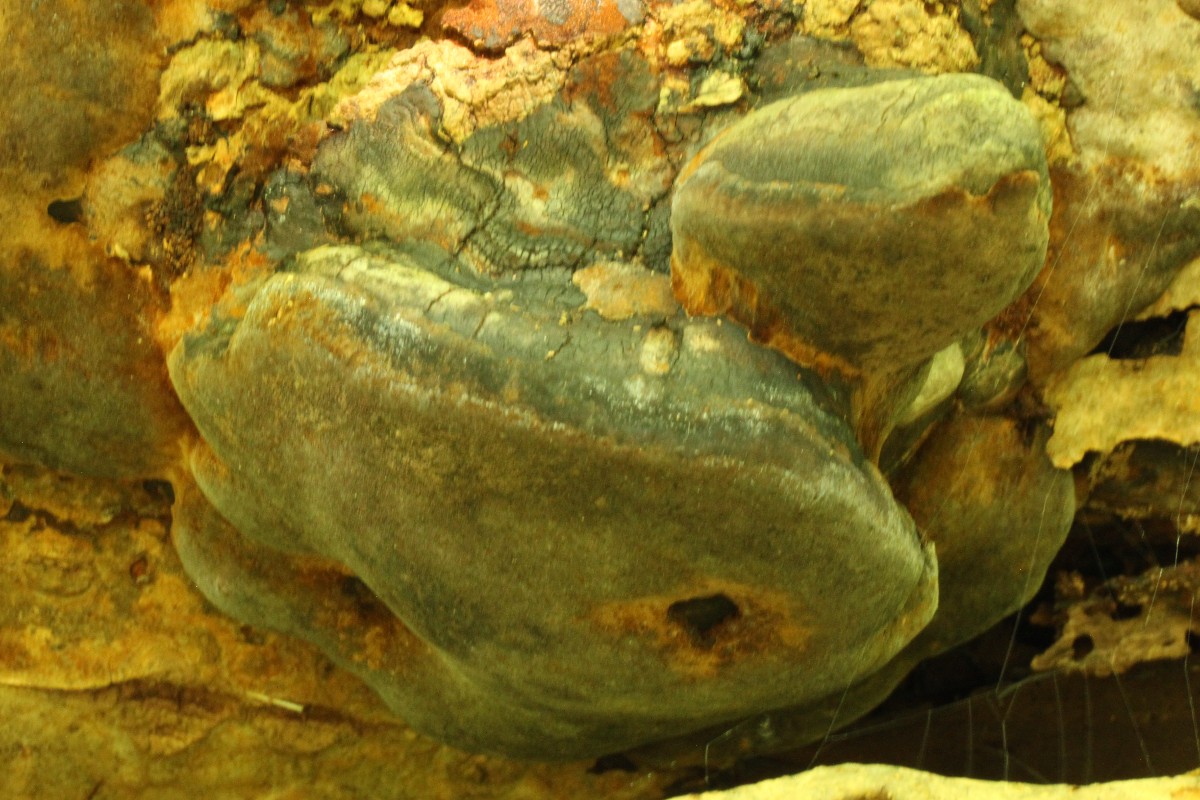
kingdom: Fungi
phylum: Basidiomycota
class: Agaricomycetes
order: Hymenochaetales
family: Hymenochaetaceae
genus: Phellinus
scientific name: Phellinus
